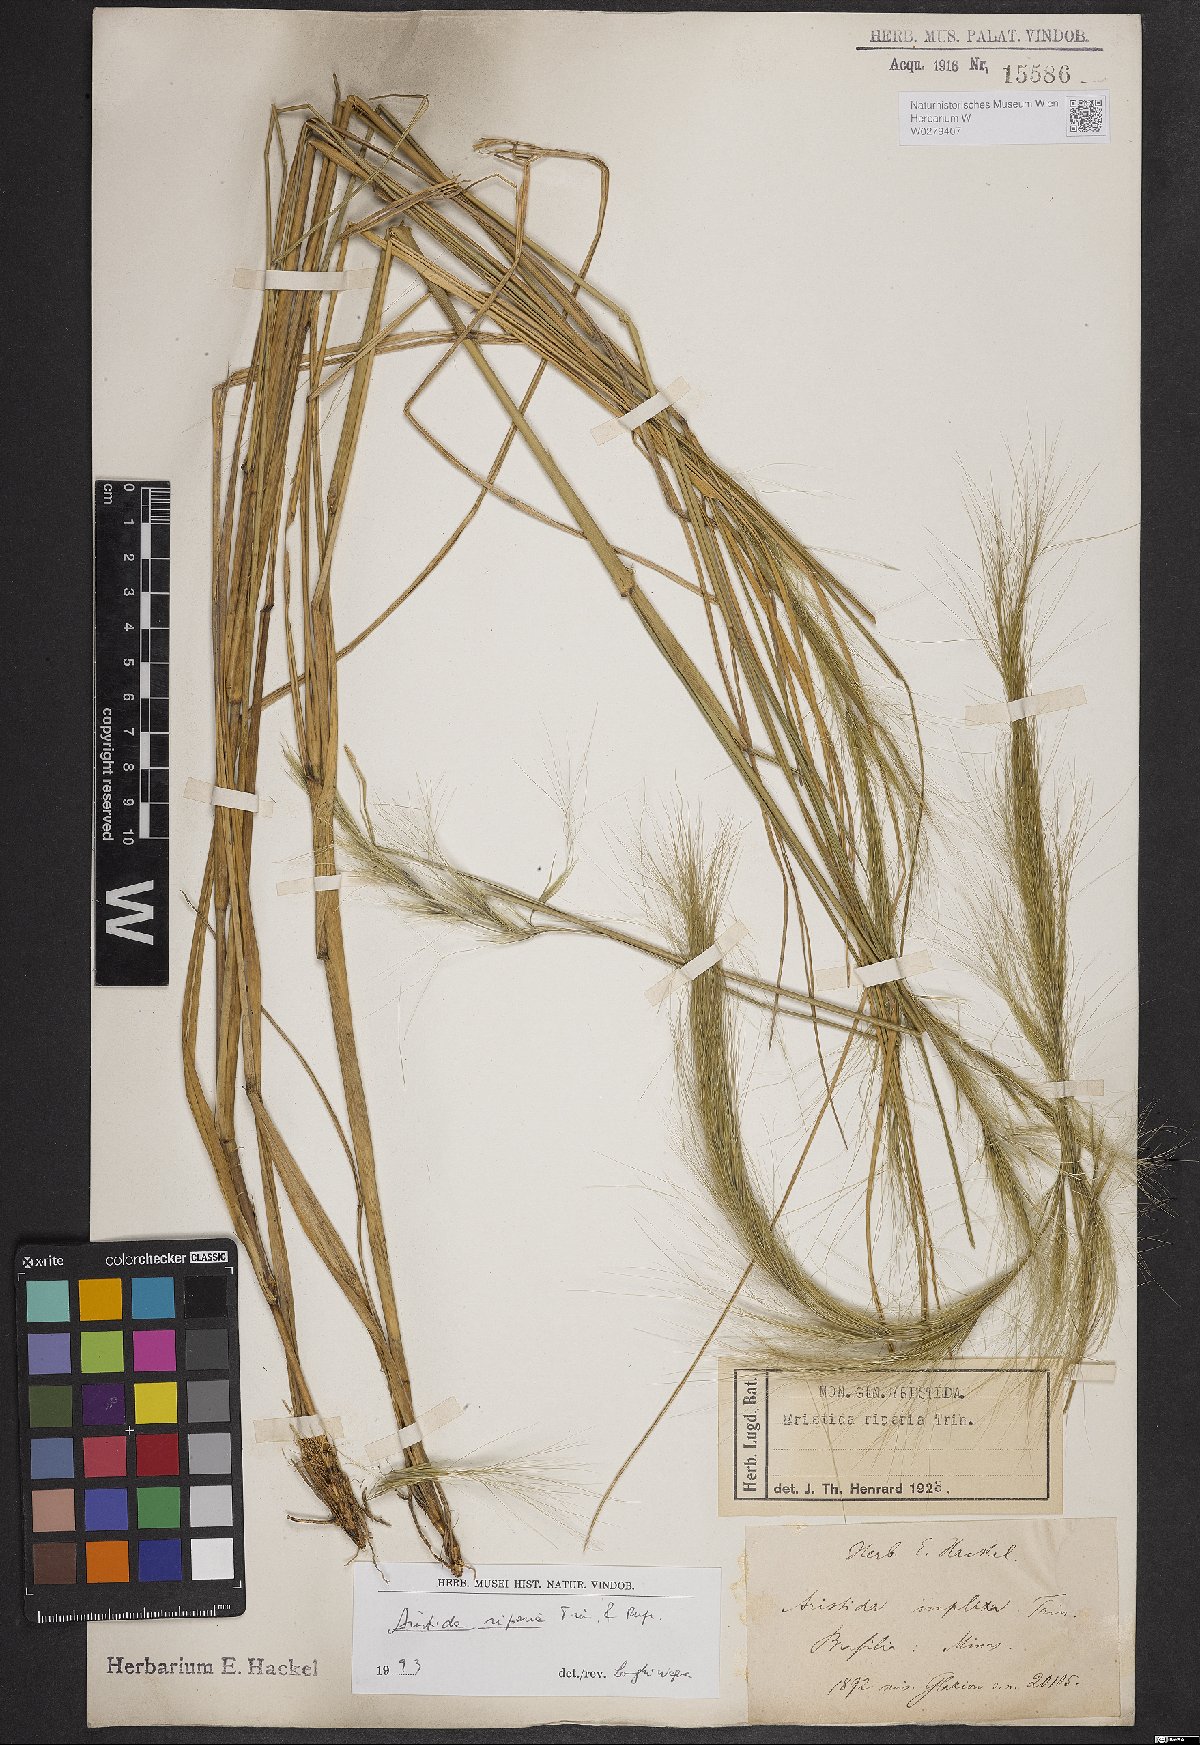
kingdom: Plantae
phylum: Tracheophyta
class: Liliopsida
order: Poales
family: Poaceae
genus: Aristida
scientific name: Aristida riparia
